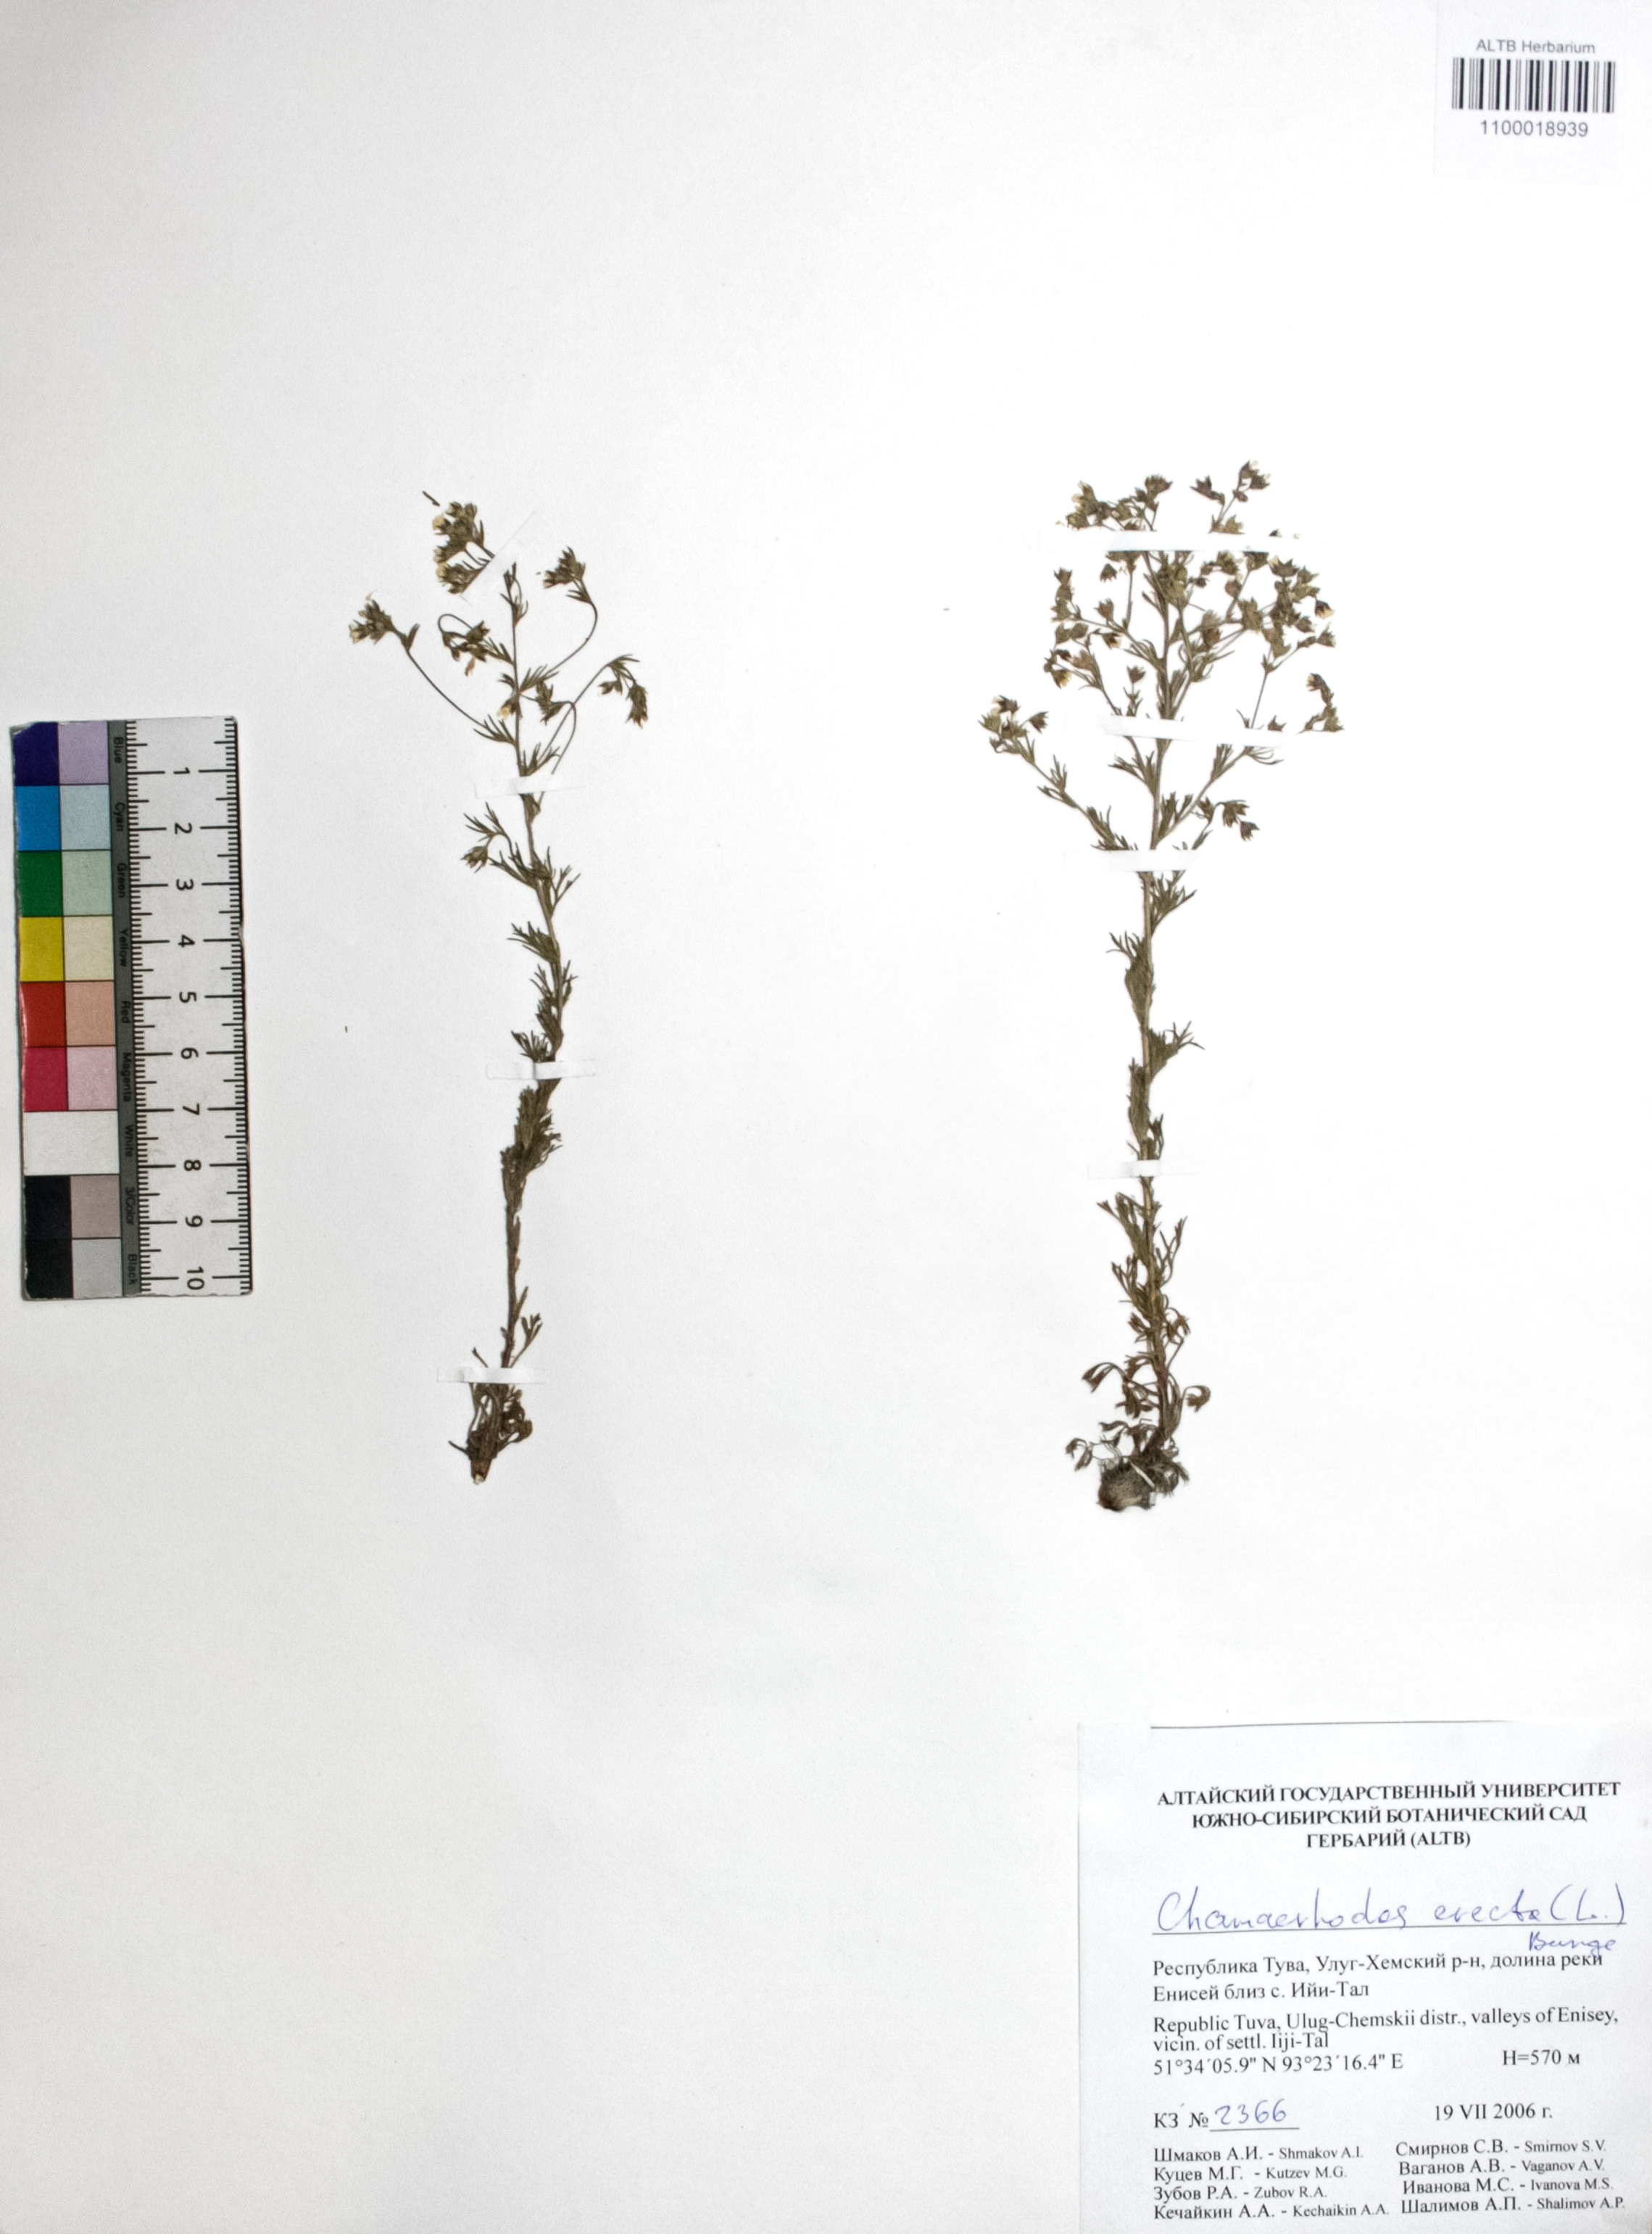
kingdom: Plantae
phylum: Tracheophyta
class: Magnoliopsida
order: Rosales
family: Rosaceae
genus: Chamaerhodos
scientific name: Chamaerhodos erecta
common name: American chamaerhodos
